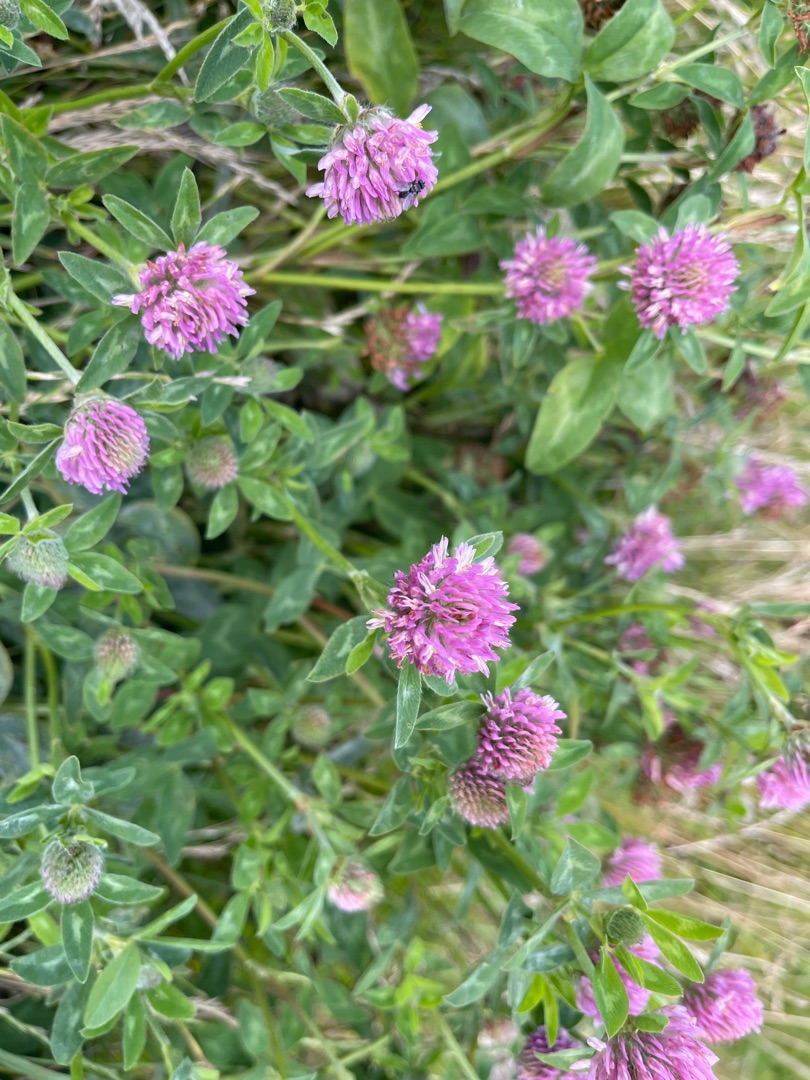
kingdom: Plantae
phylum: Tracheophyta
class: Magnoliopsida
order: Fabales
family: Fabaceae
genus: Trifolium
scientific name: Trifolium pratense
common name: Rød-kløver
